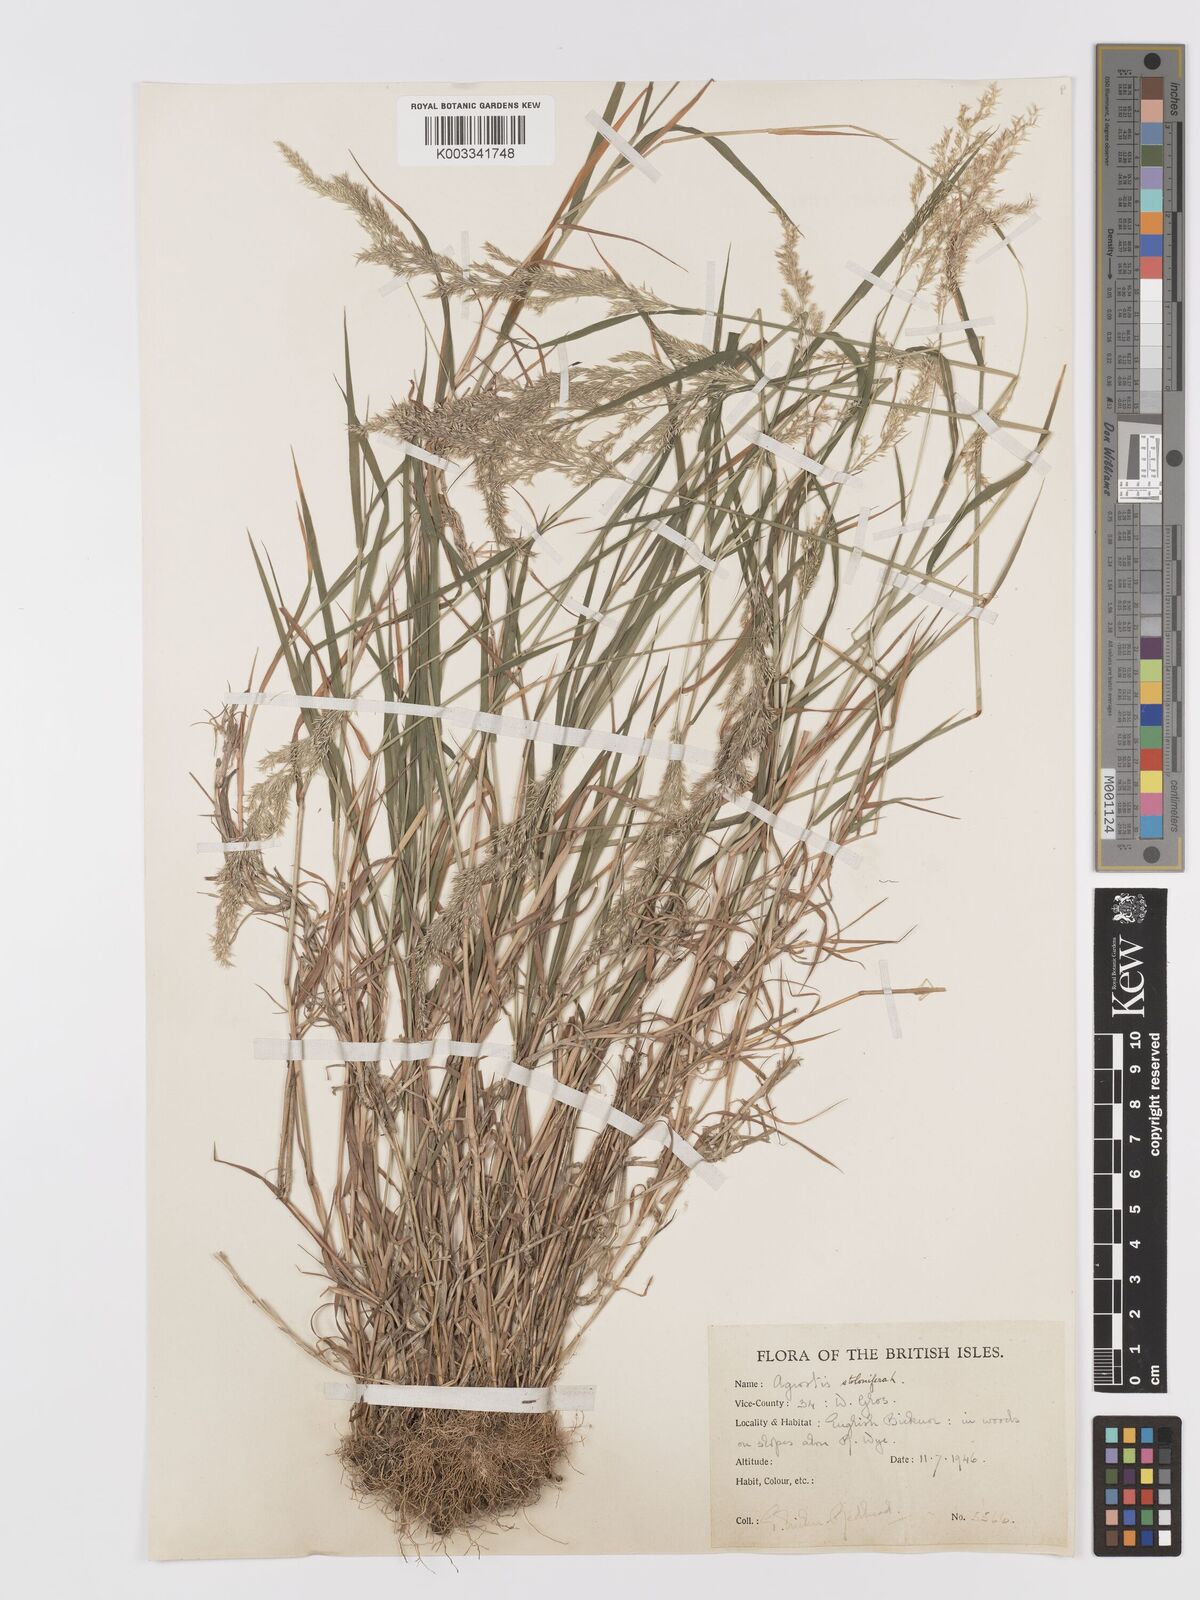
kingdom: Plantae
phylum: Tracheophyta
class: Liliopsida
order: Poales
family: Poaceae
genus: Agrostis
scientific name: Agrostis stolonifera
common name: Creeping bentgrass
